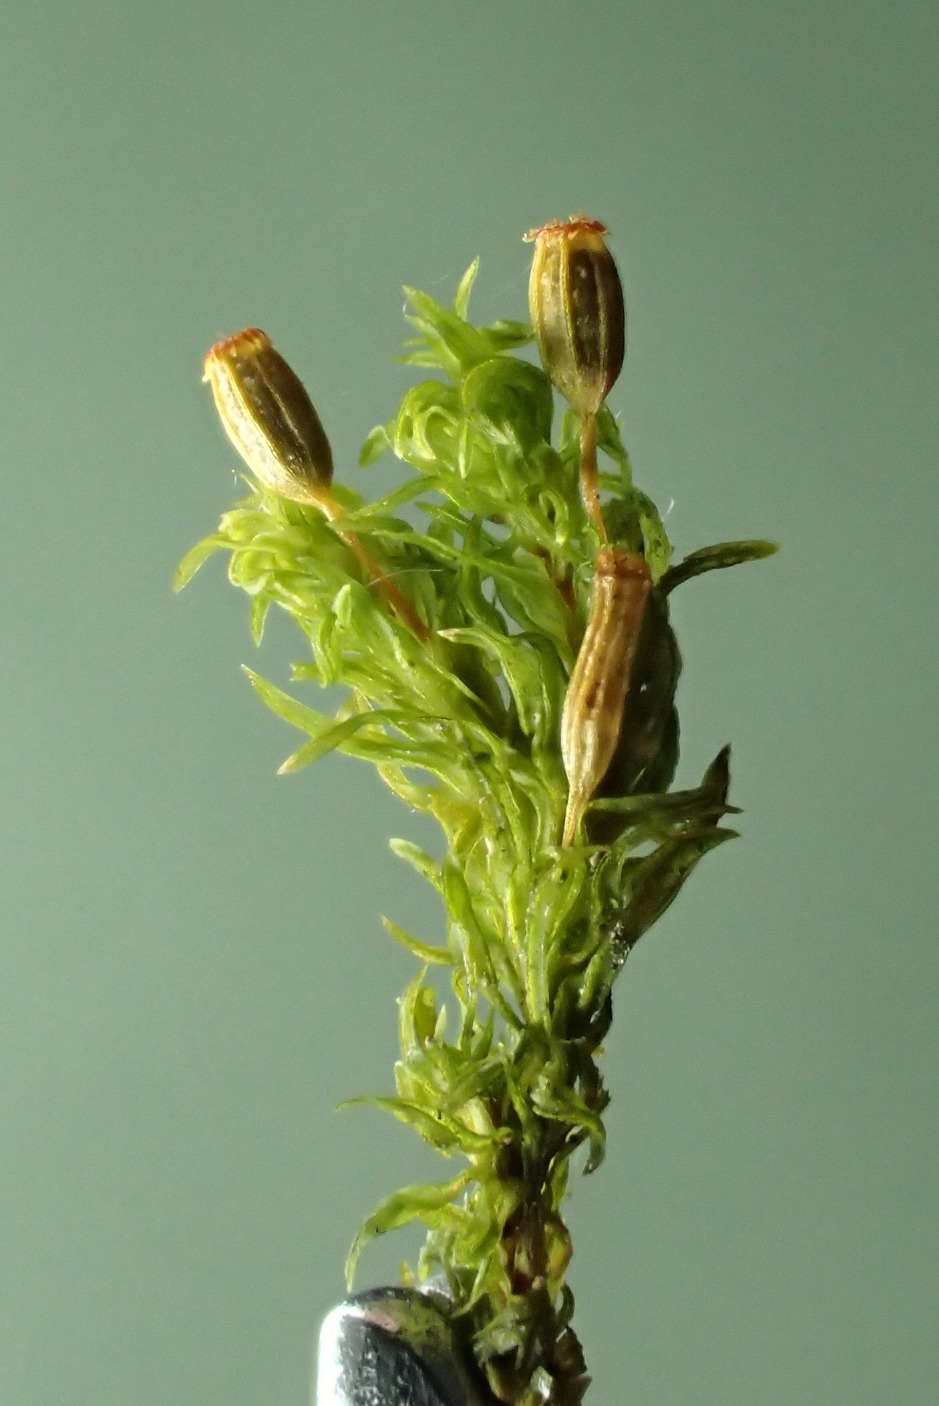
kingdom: Plantae
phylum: Bryophyta
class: Bryopsida
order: Orthotrichales
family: Orthotrichaceae
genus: Orthotrichum
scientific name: Orthotrichum pulchellum
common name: Smuk furehætte
